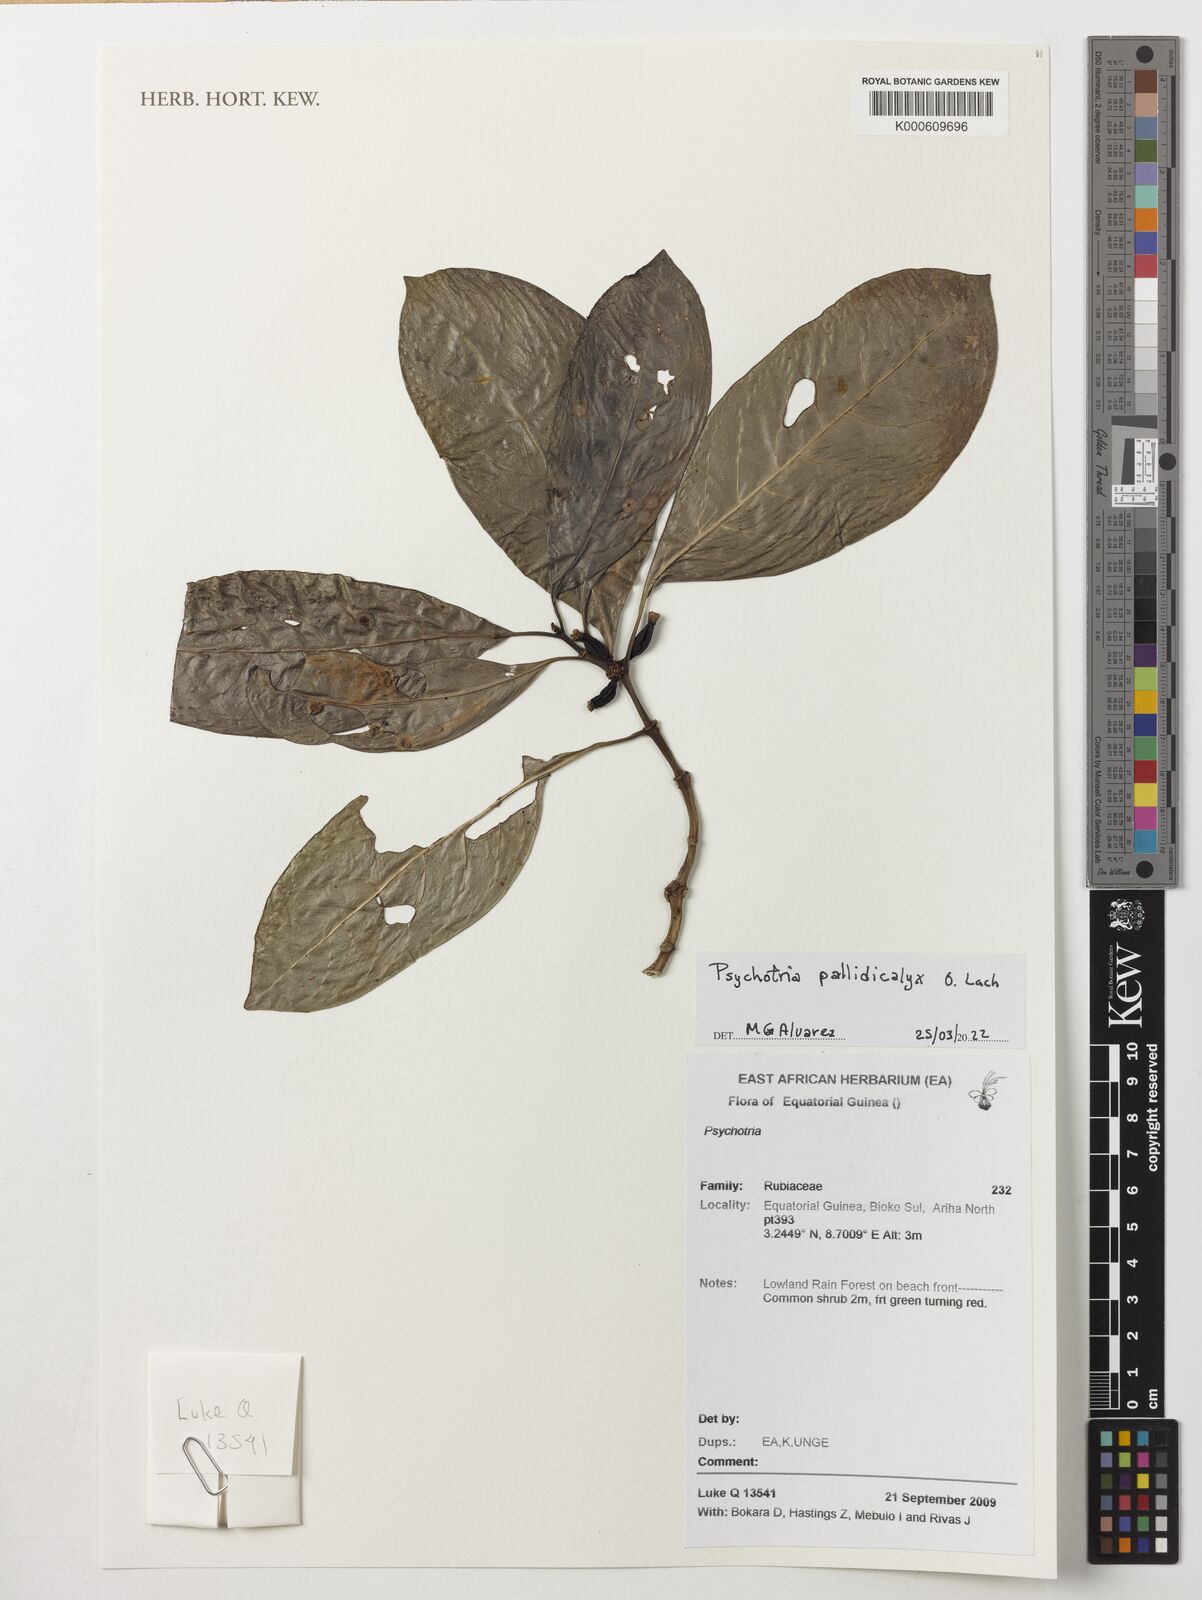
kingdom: Plantae
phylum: Tracheophyta
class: Magnoliopsida
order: Gentianales
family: Rubiaceae
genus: Psychotria
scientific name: Psychotria pallidicalyx
